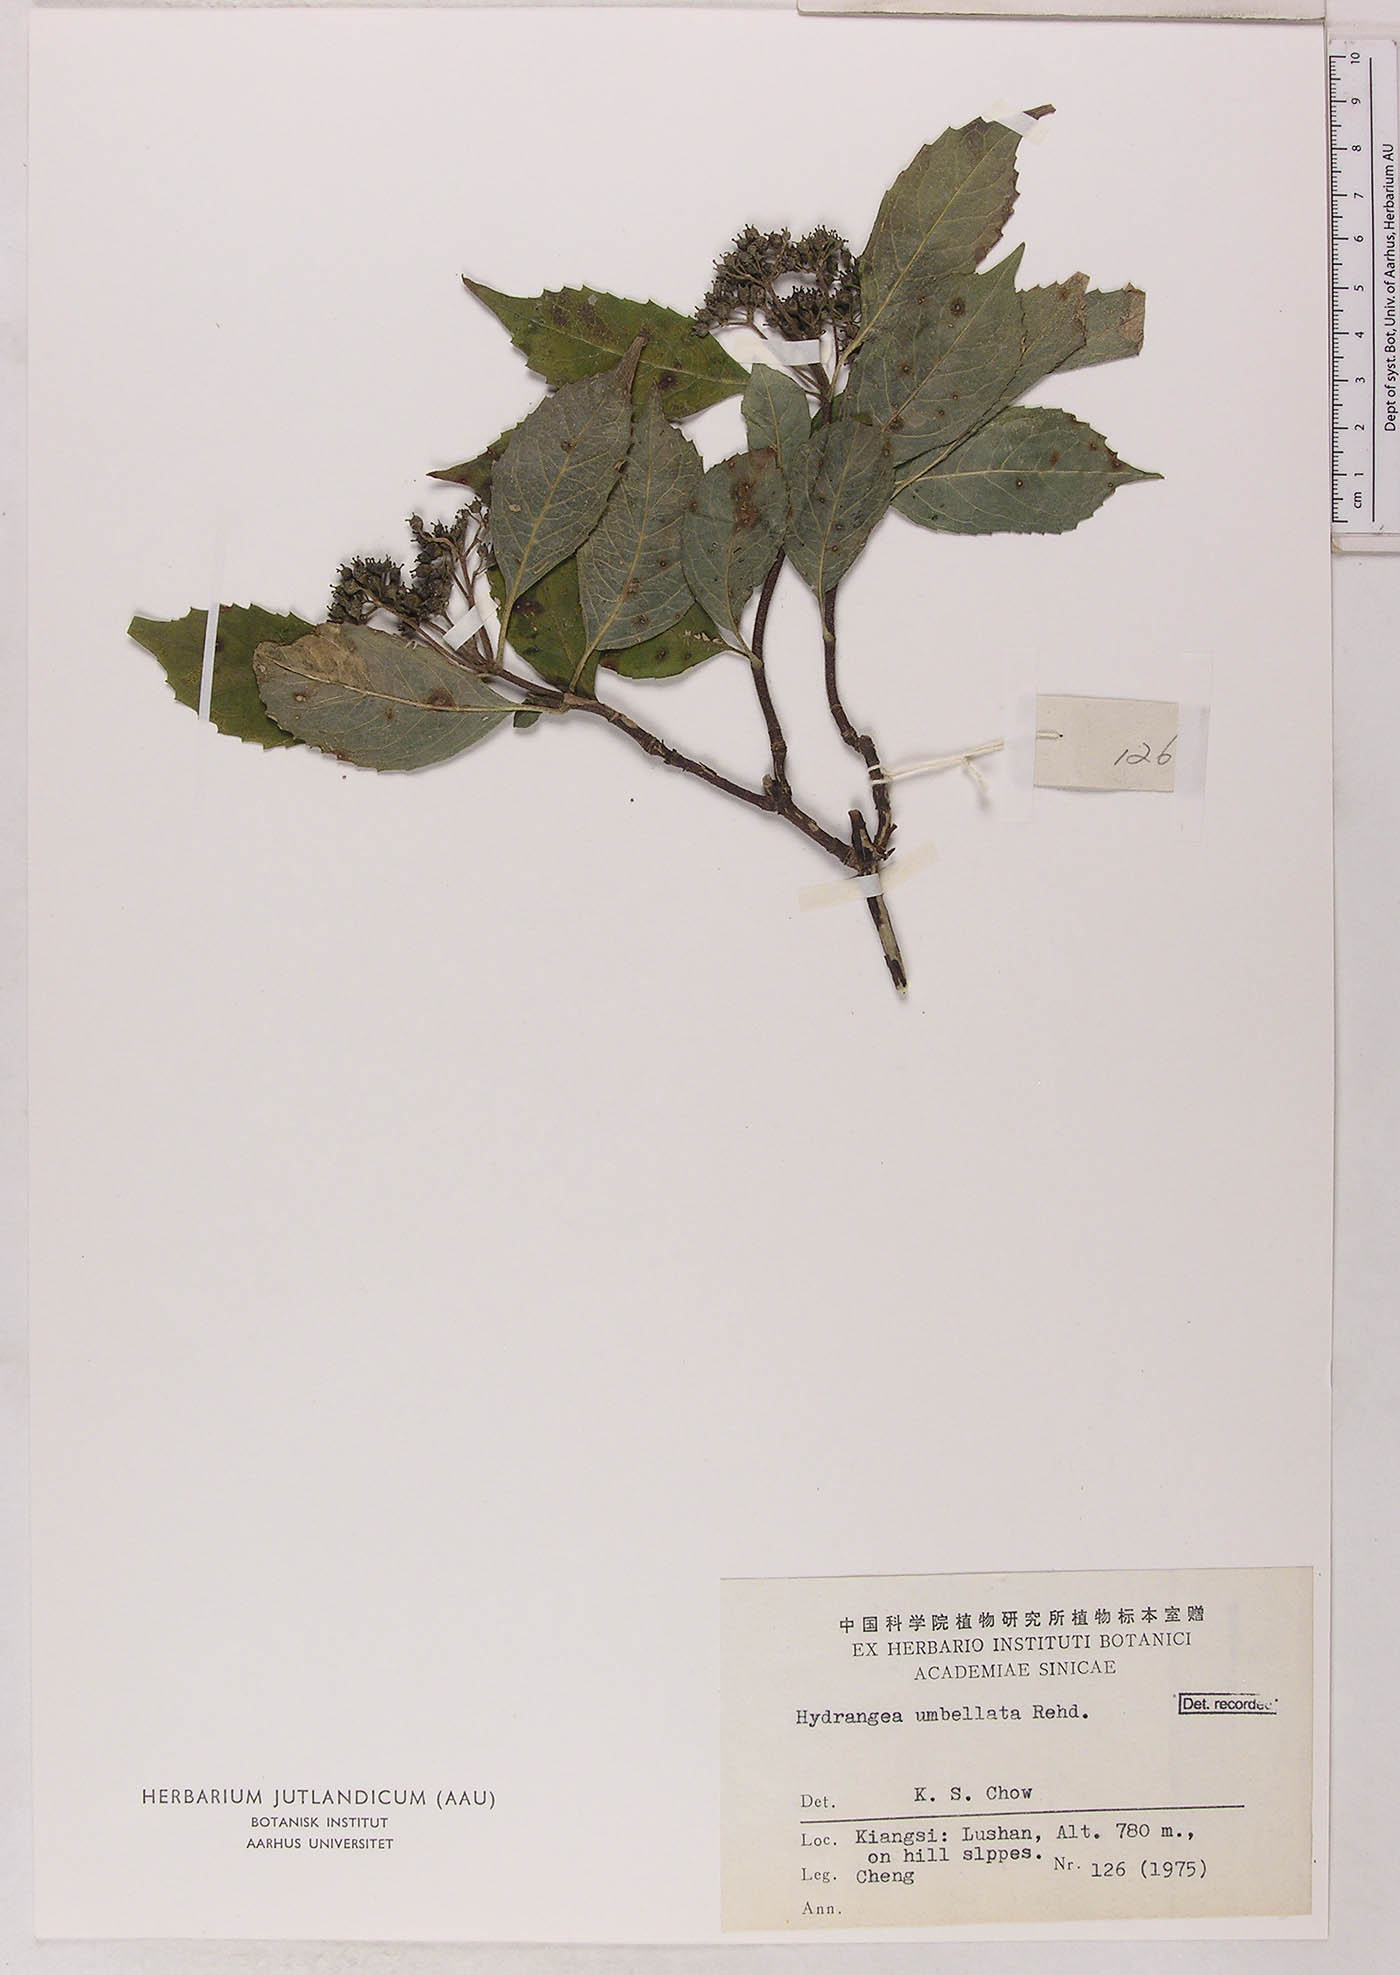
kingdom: Plantae
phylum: Tracheophyta
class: Magnoliopsida
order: Cornales
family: Hydrangeaceae
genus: Hydrangea
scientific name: Hydrangea chinensis
